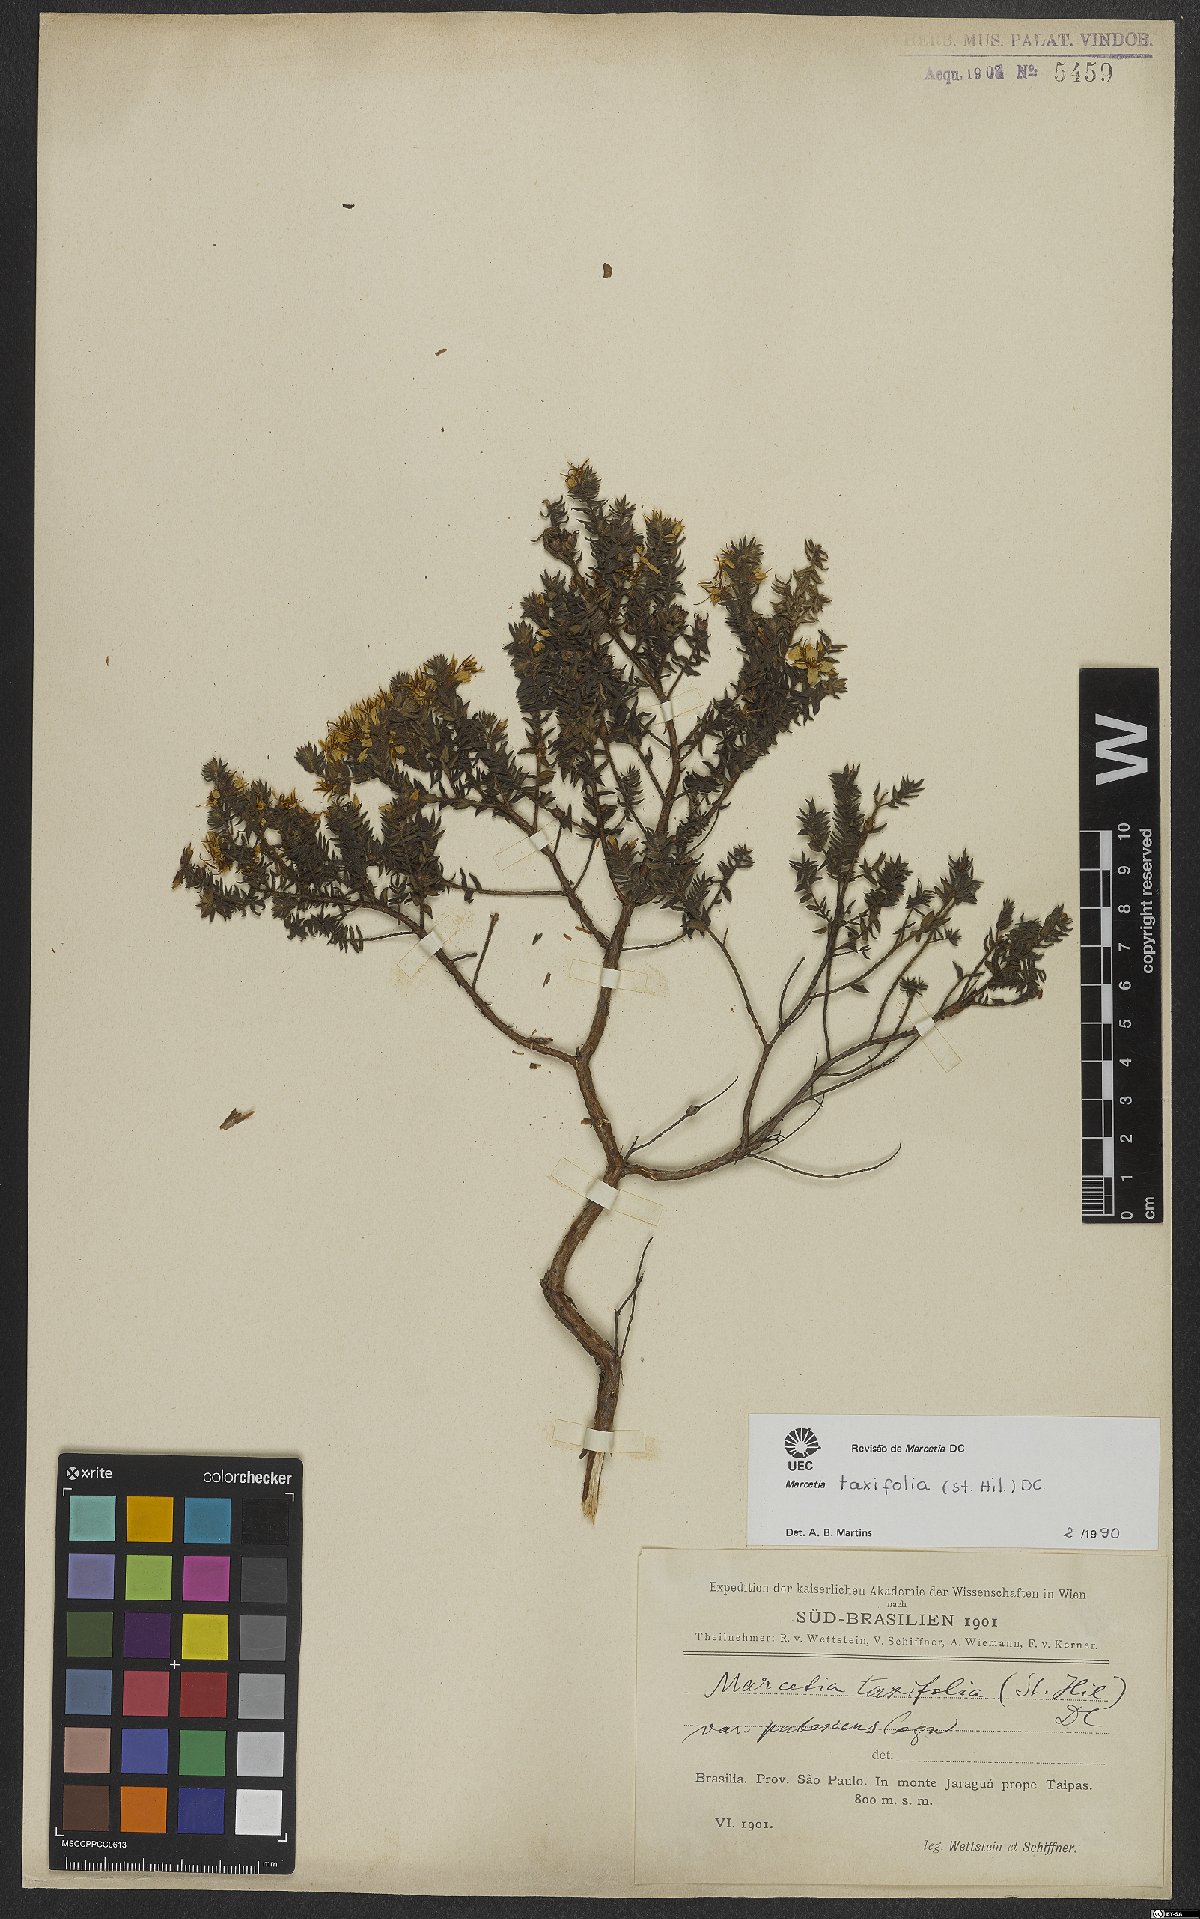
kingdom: Plantae
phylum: Tracheophyta
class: Magnoliopsida
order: Myrtales
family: Melastomataceae
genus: Marcetia
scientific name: Marcetia taxifolia
